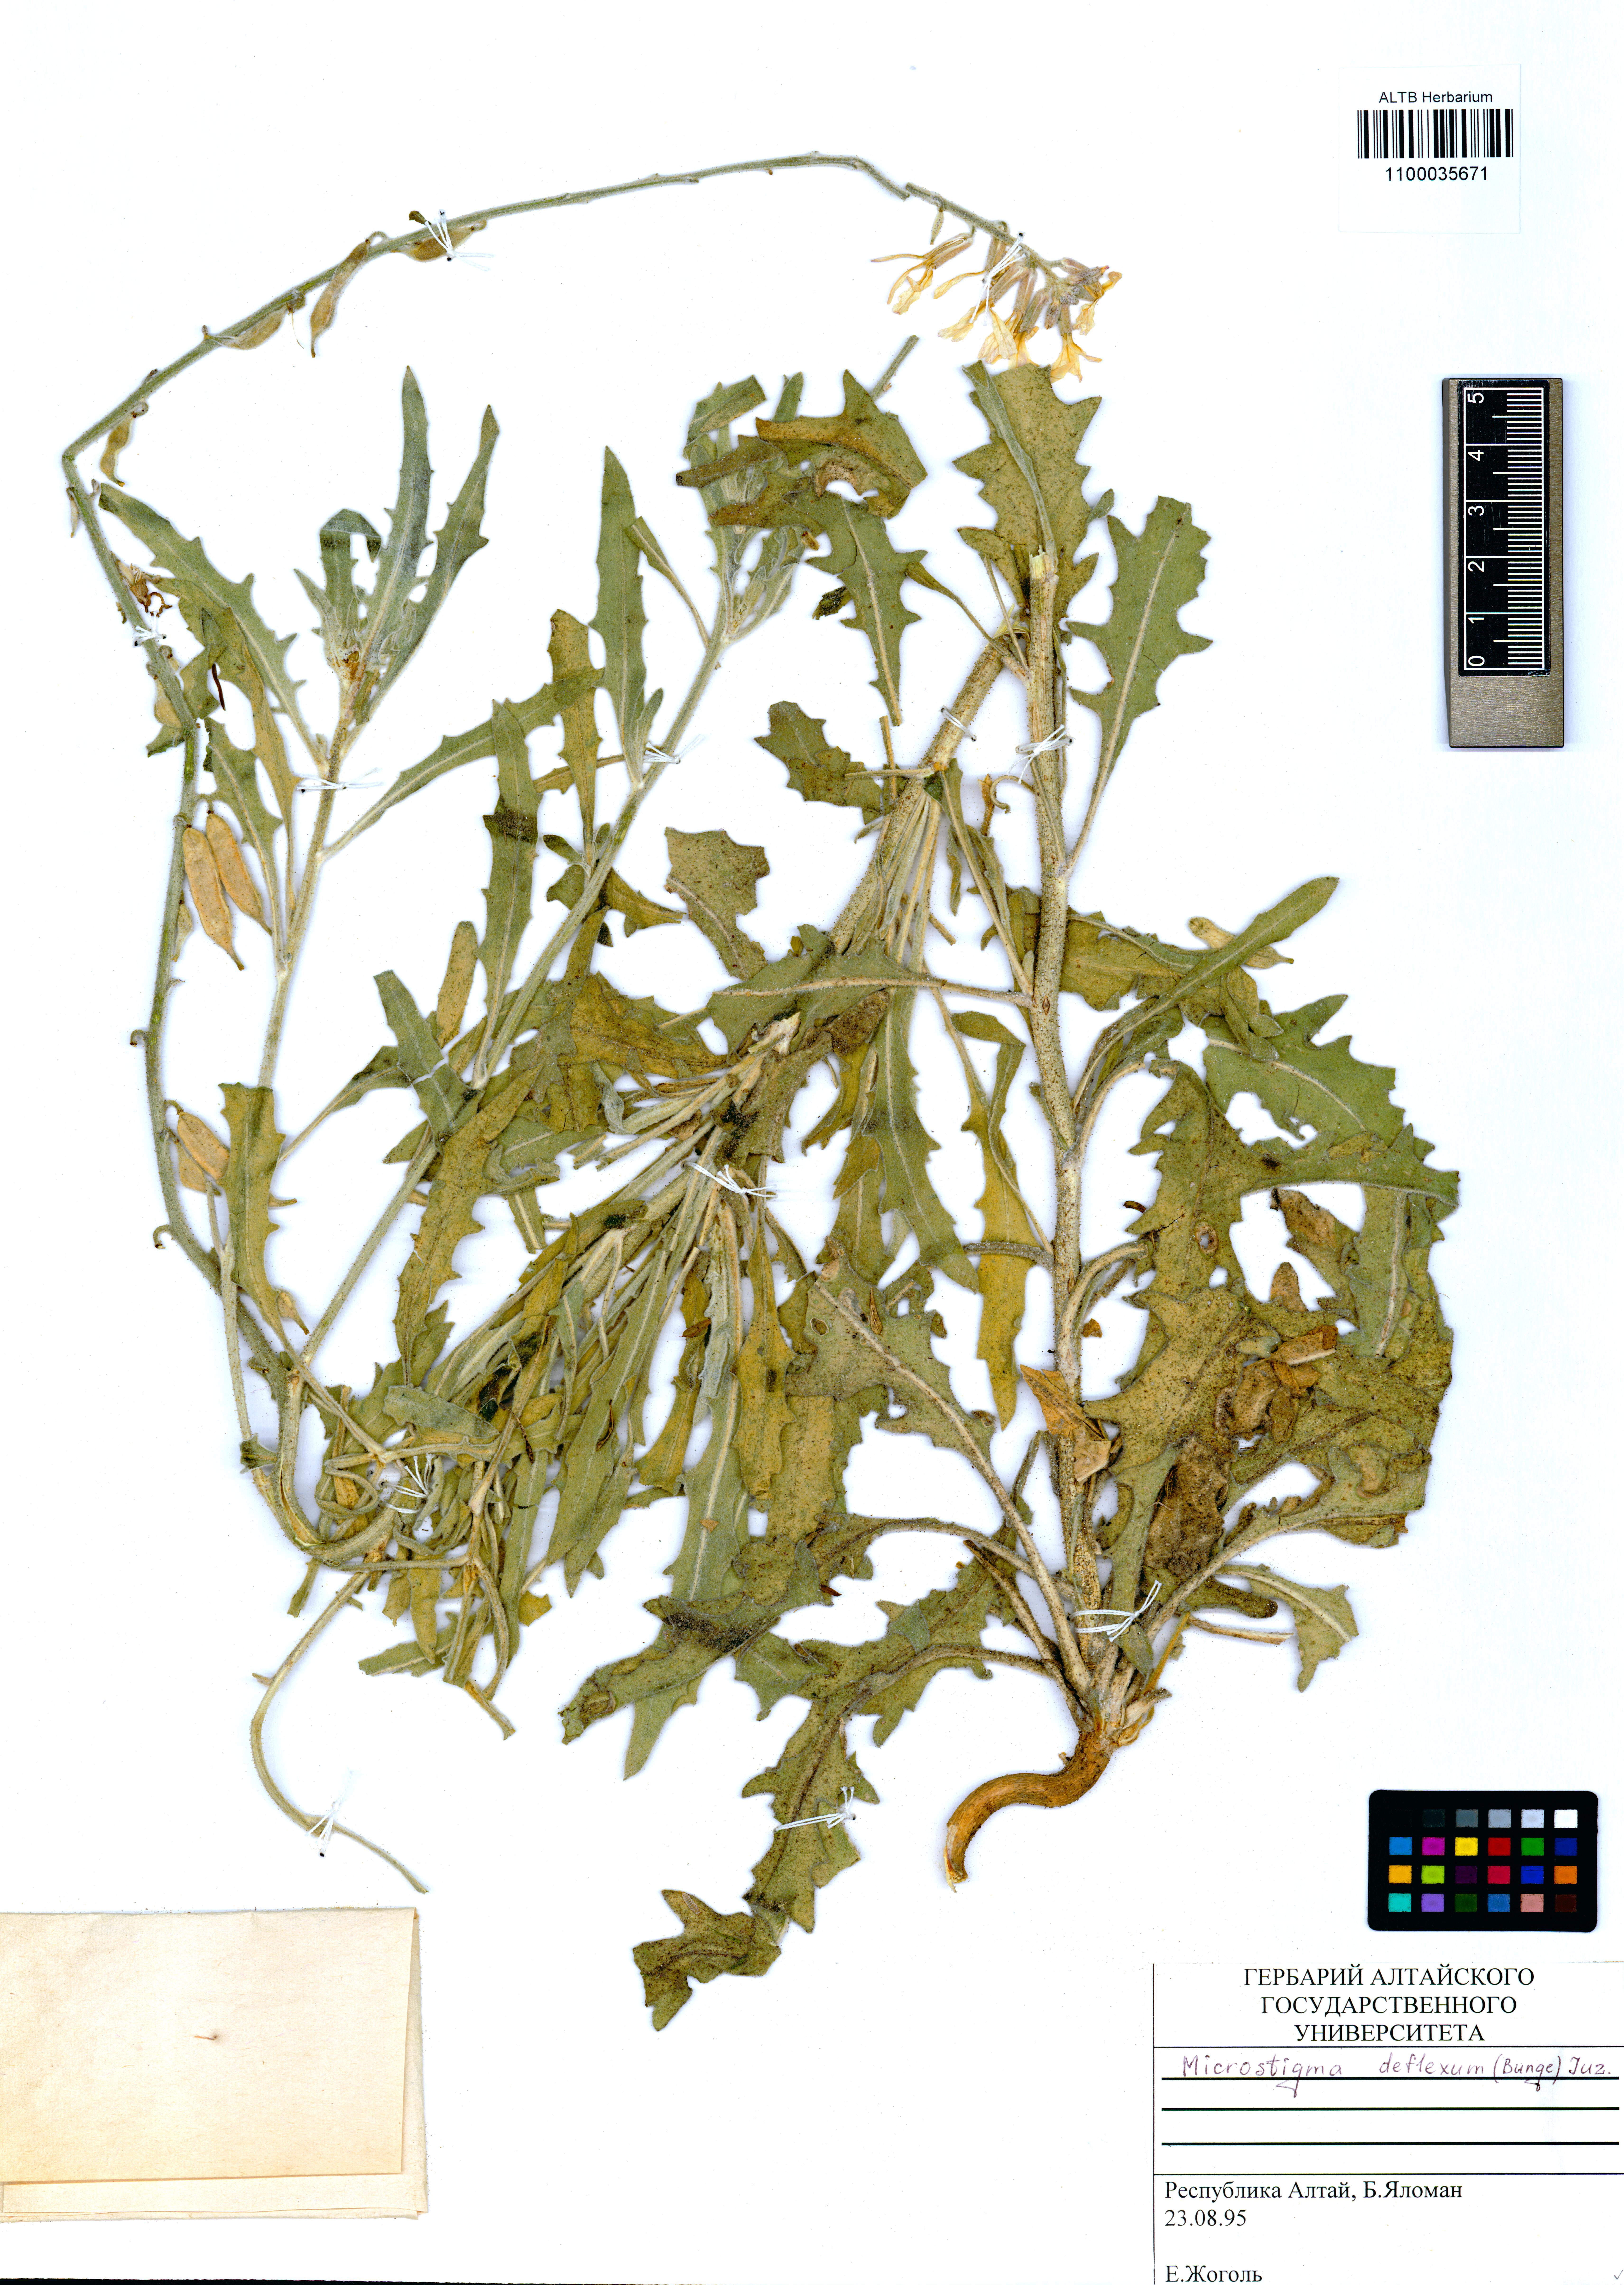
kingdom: Plantae
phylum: Tracheophyta
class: Magnoliopsida
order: Brassicales
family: Brassicaceae
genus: Microstigma
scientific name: Microstigma deflexum
